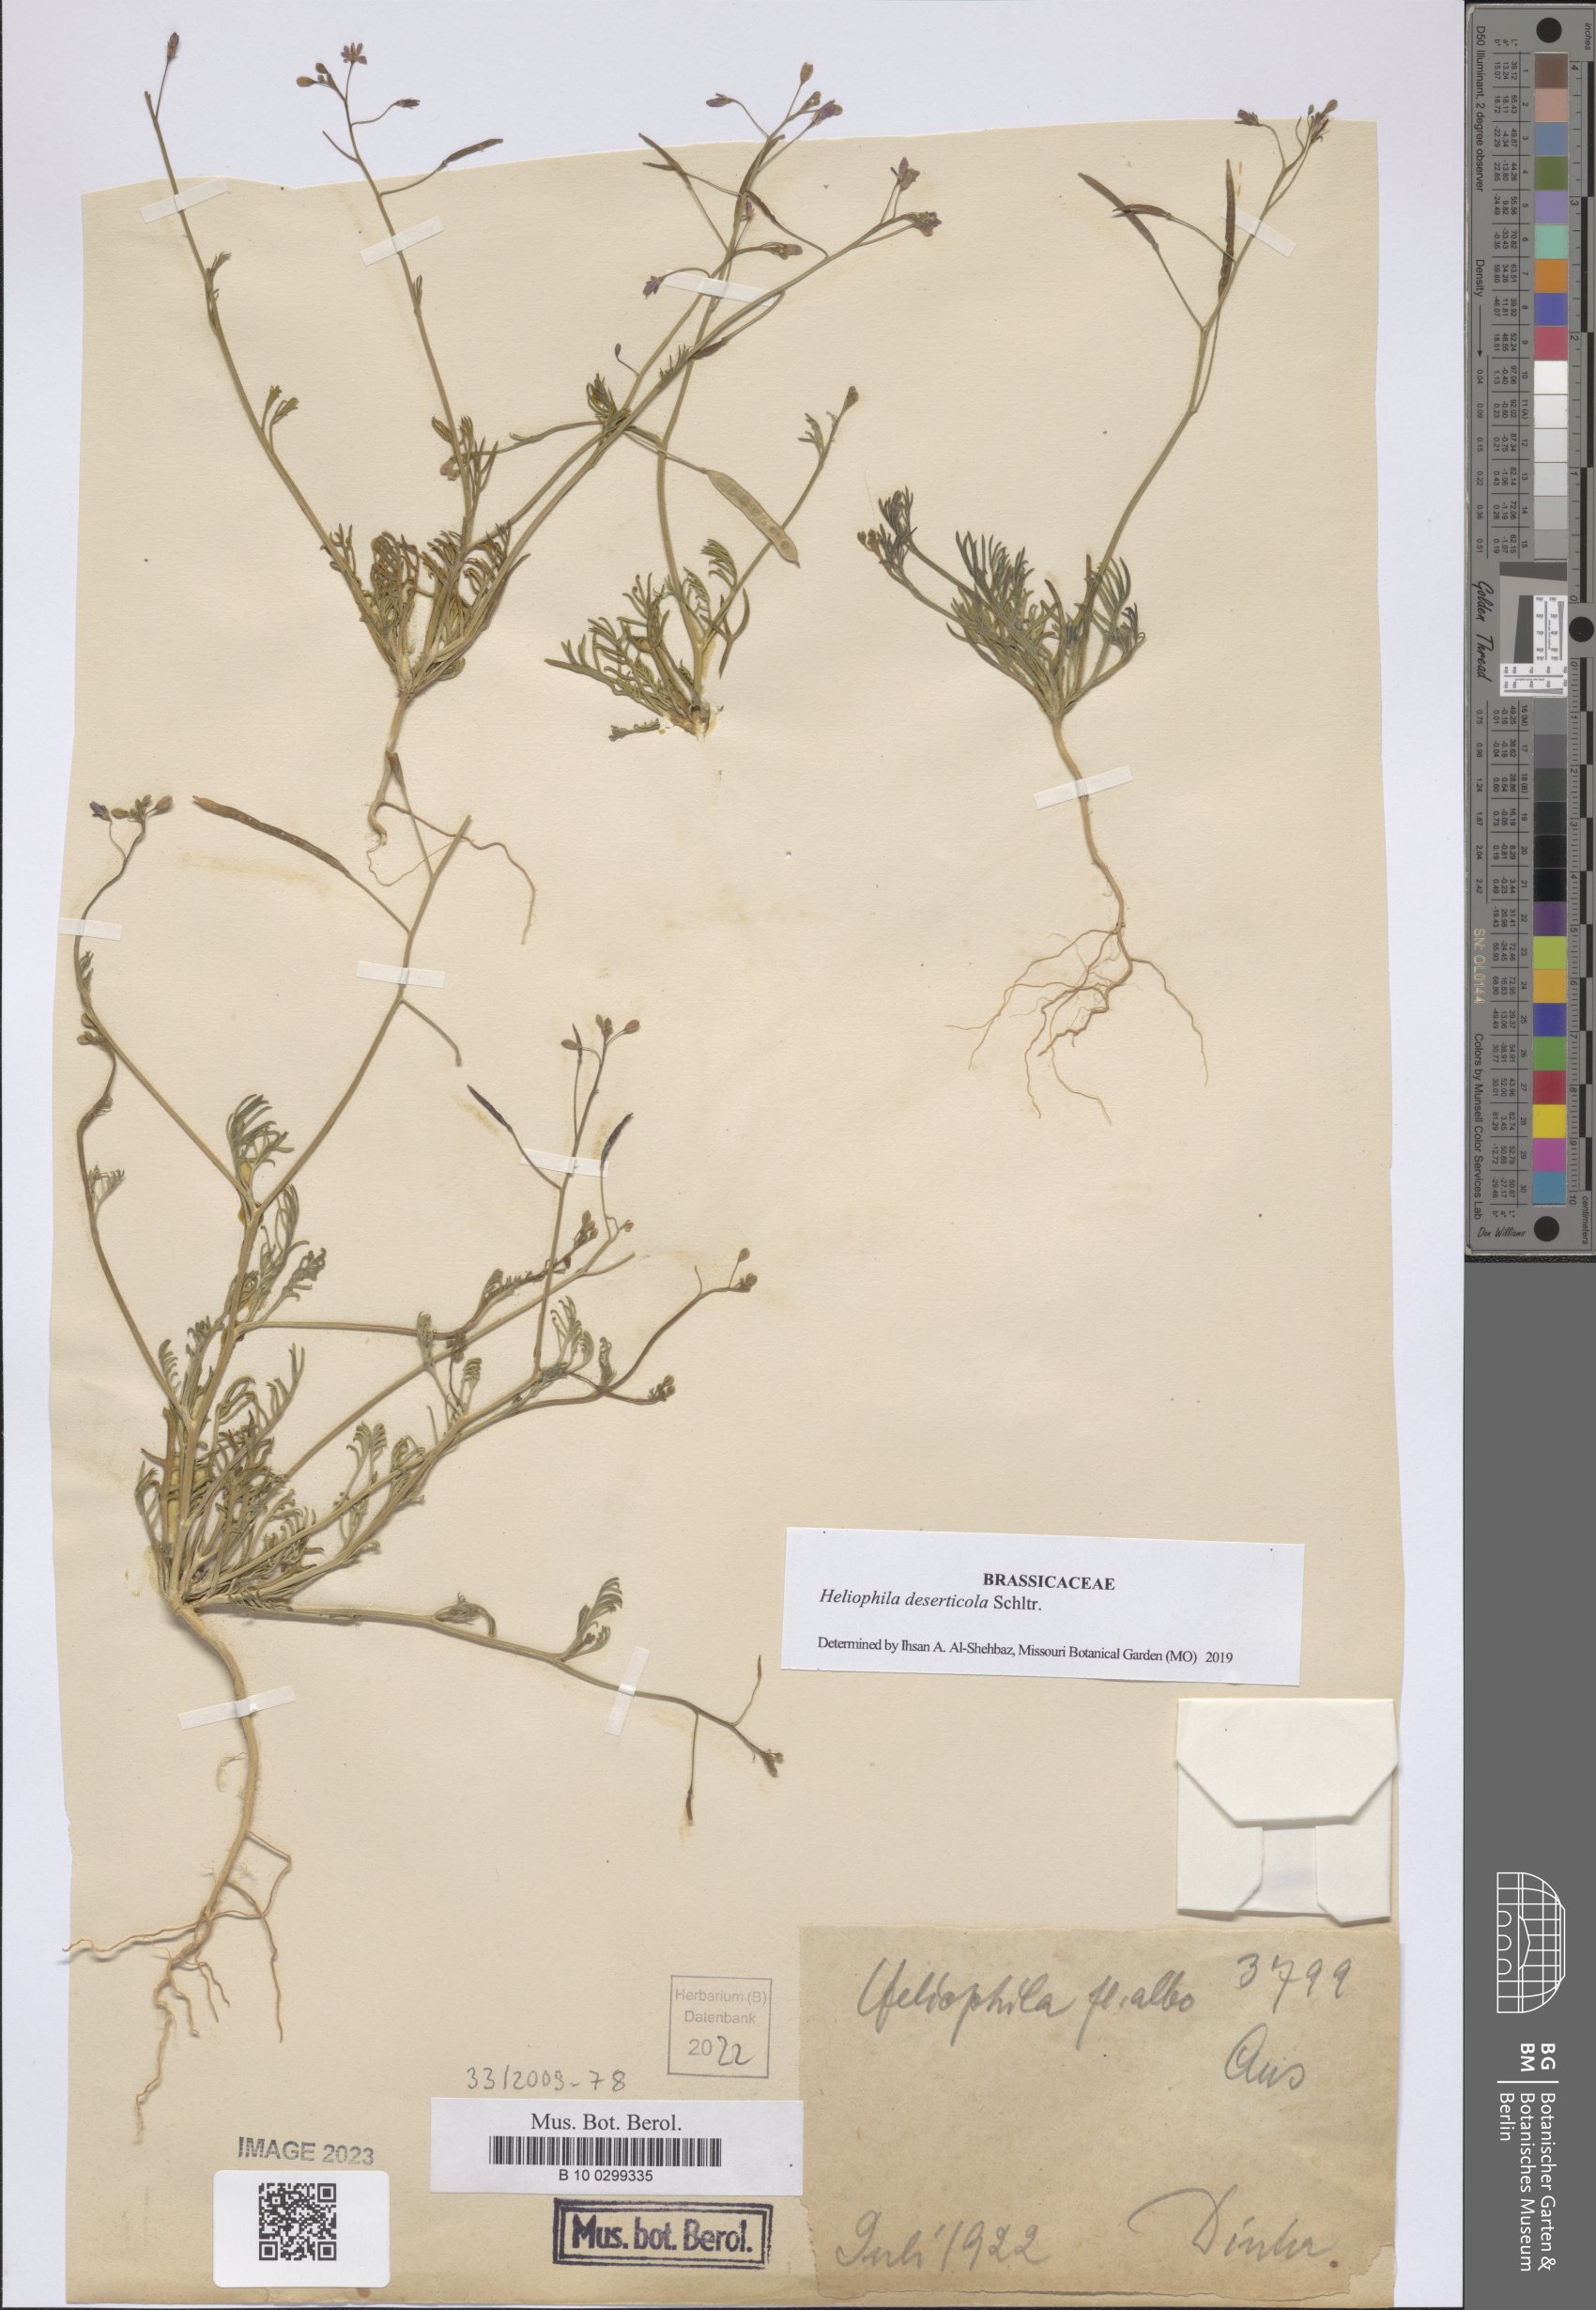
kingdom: Plantae
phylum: Tracheophyta
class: Magnoliopsida
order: Brassicales
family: Brassicaceae
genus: Heliophila
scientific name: Heliophila deserticola
